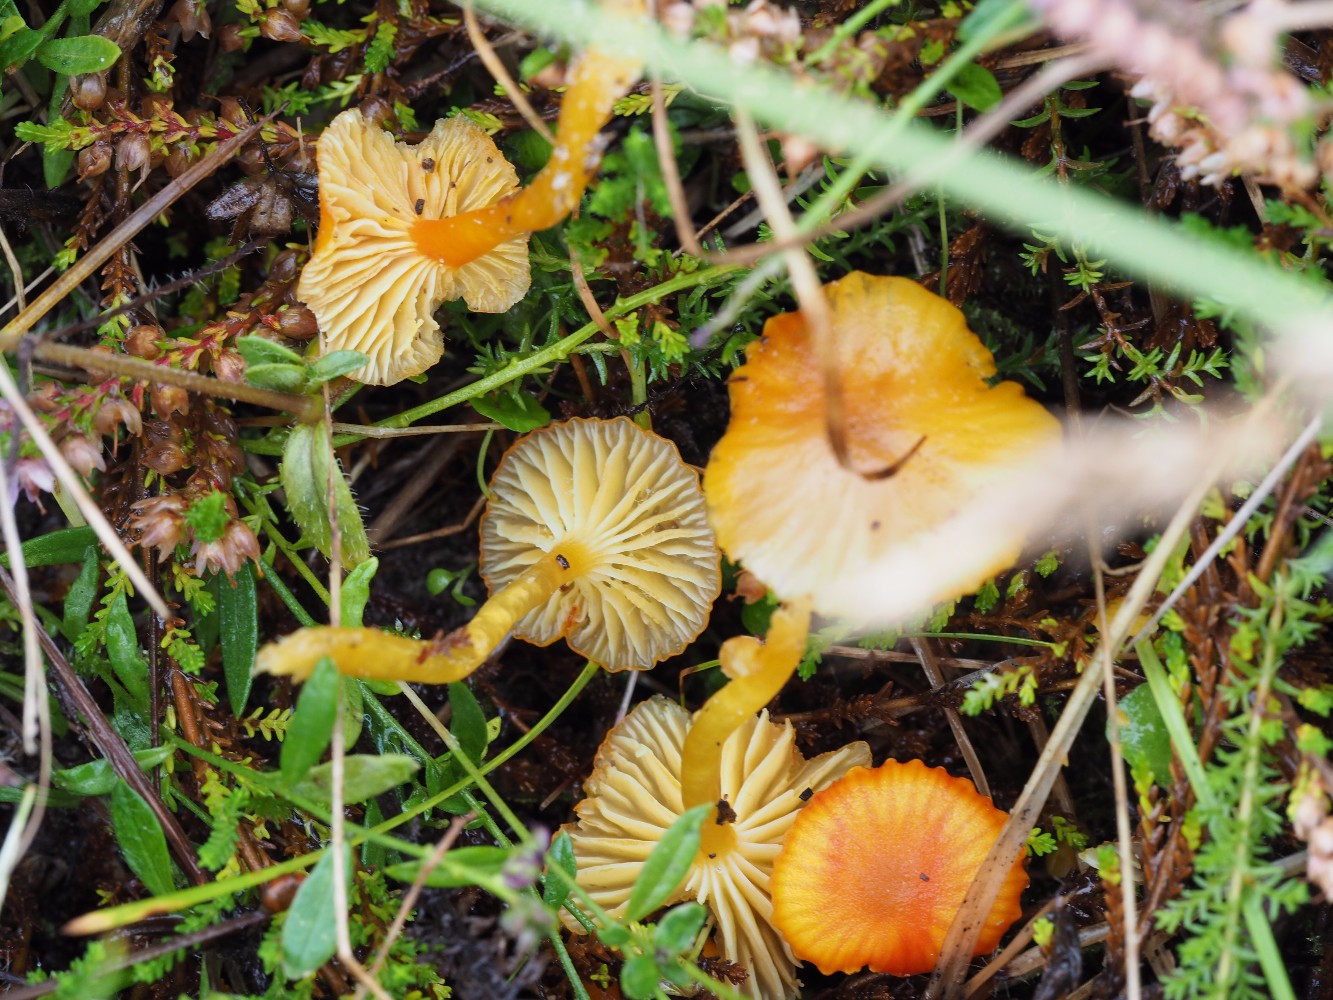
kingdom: Fungi
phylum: Basidiomycota
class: Agaricomycetes
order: Agaricales
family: Hygrophoraceae
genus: Hygrocybe
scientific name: Hygrocybe insipida
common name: liden vokshat
